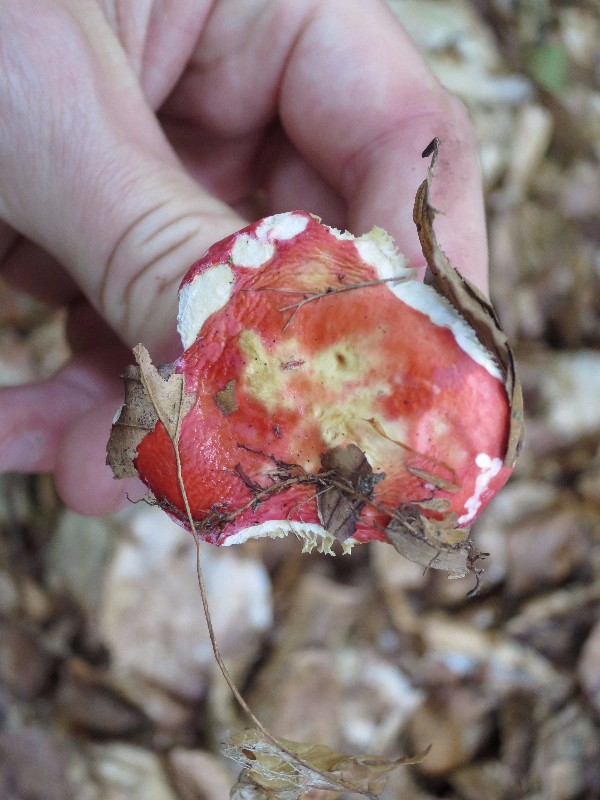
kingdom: Fungi
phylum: Basidiomycota
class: Agaricomycetes
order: Russulales
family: Russulaceae
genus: Russula
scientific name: Russula
